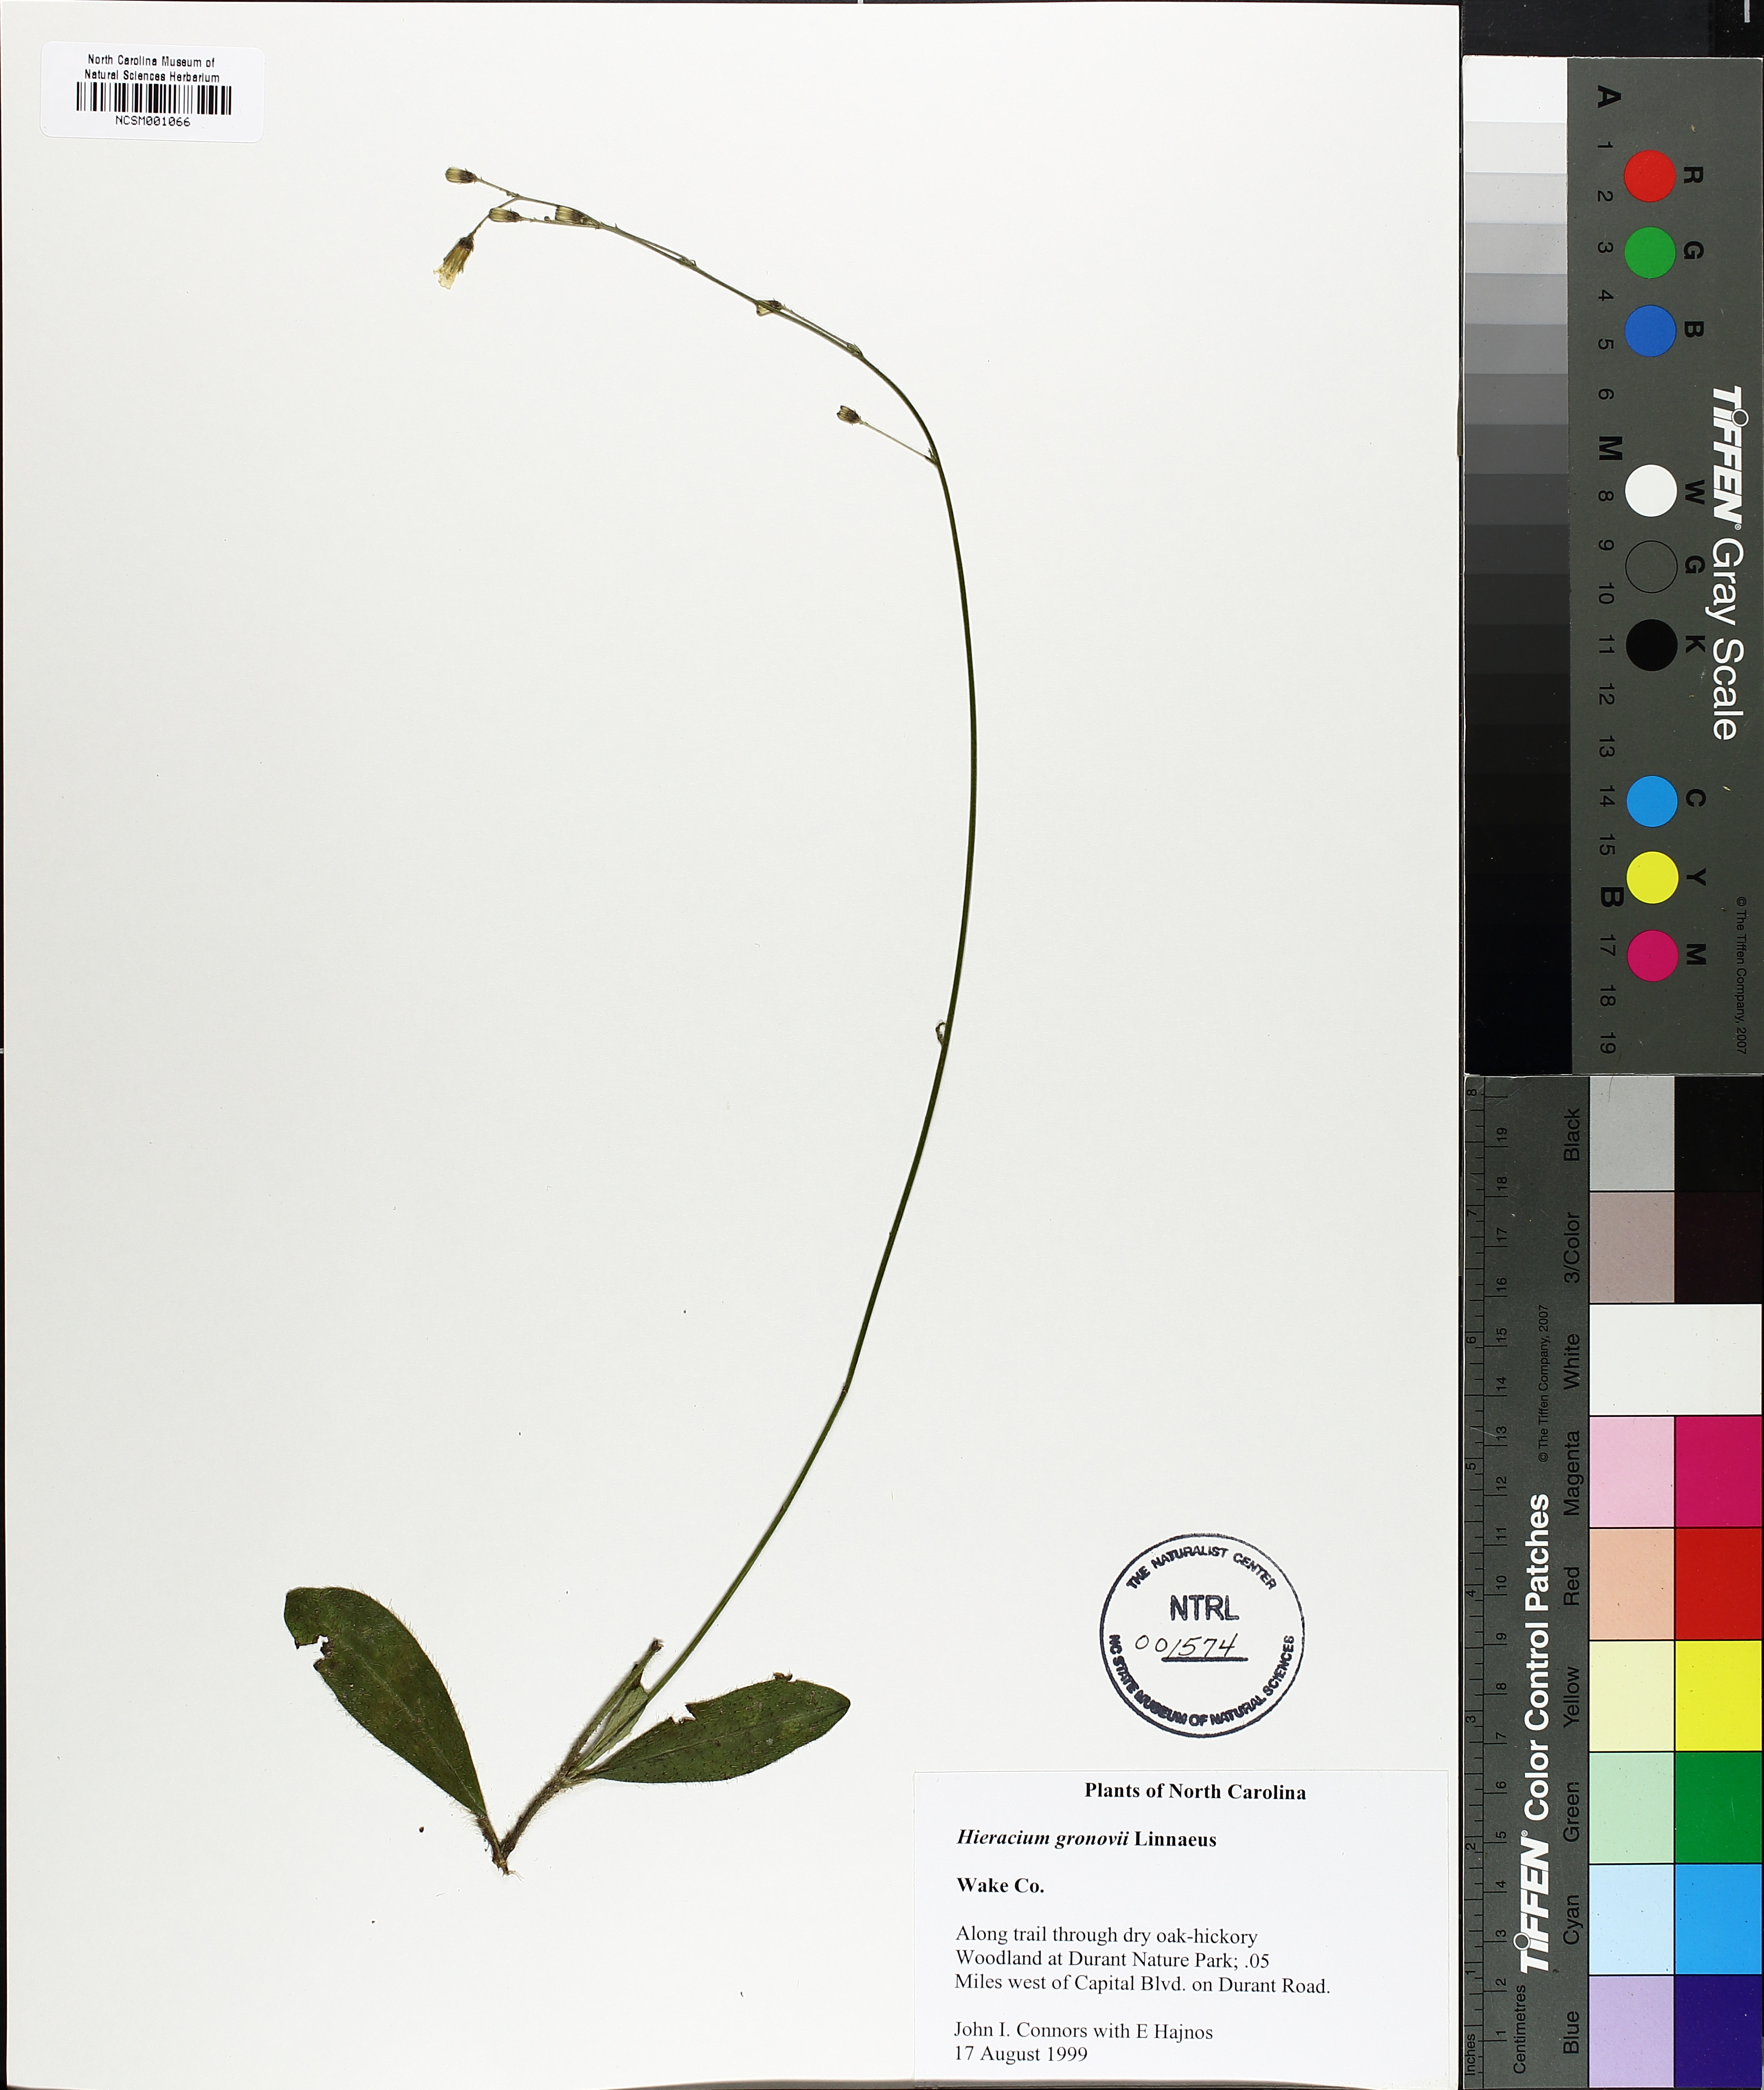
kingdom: Plantae
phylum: Tracheophyta
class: Magnoliopsida
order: Asterales
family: Asteraceae
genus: Hieracium
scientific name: Hieracium gronovii
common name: Beaked hawkweed
